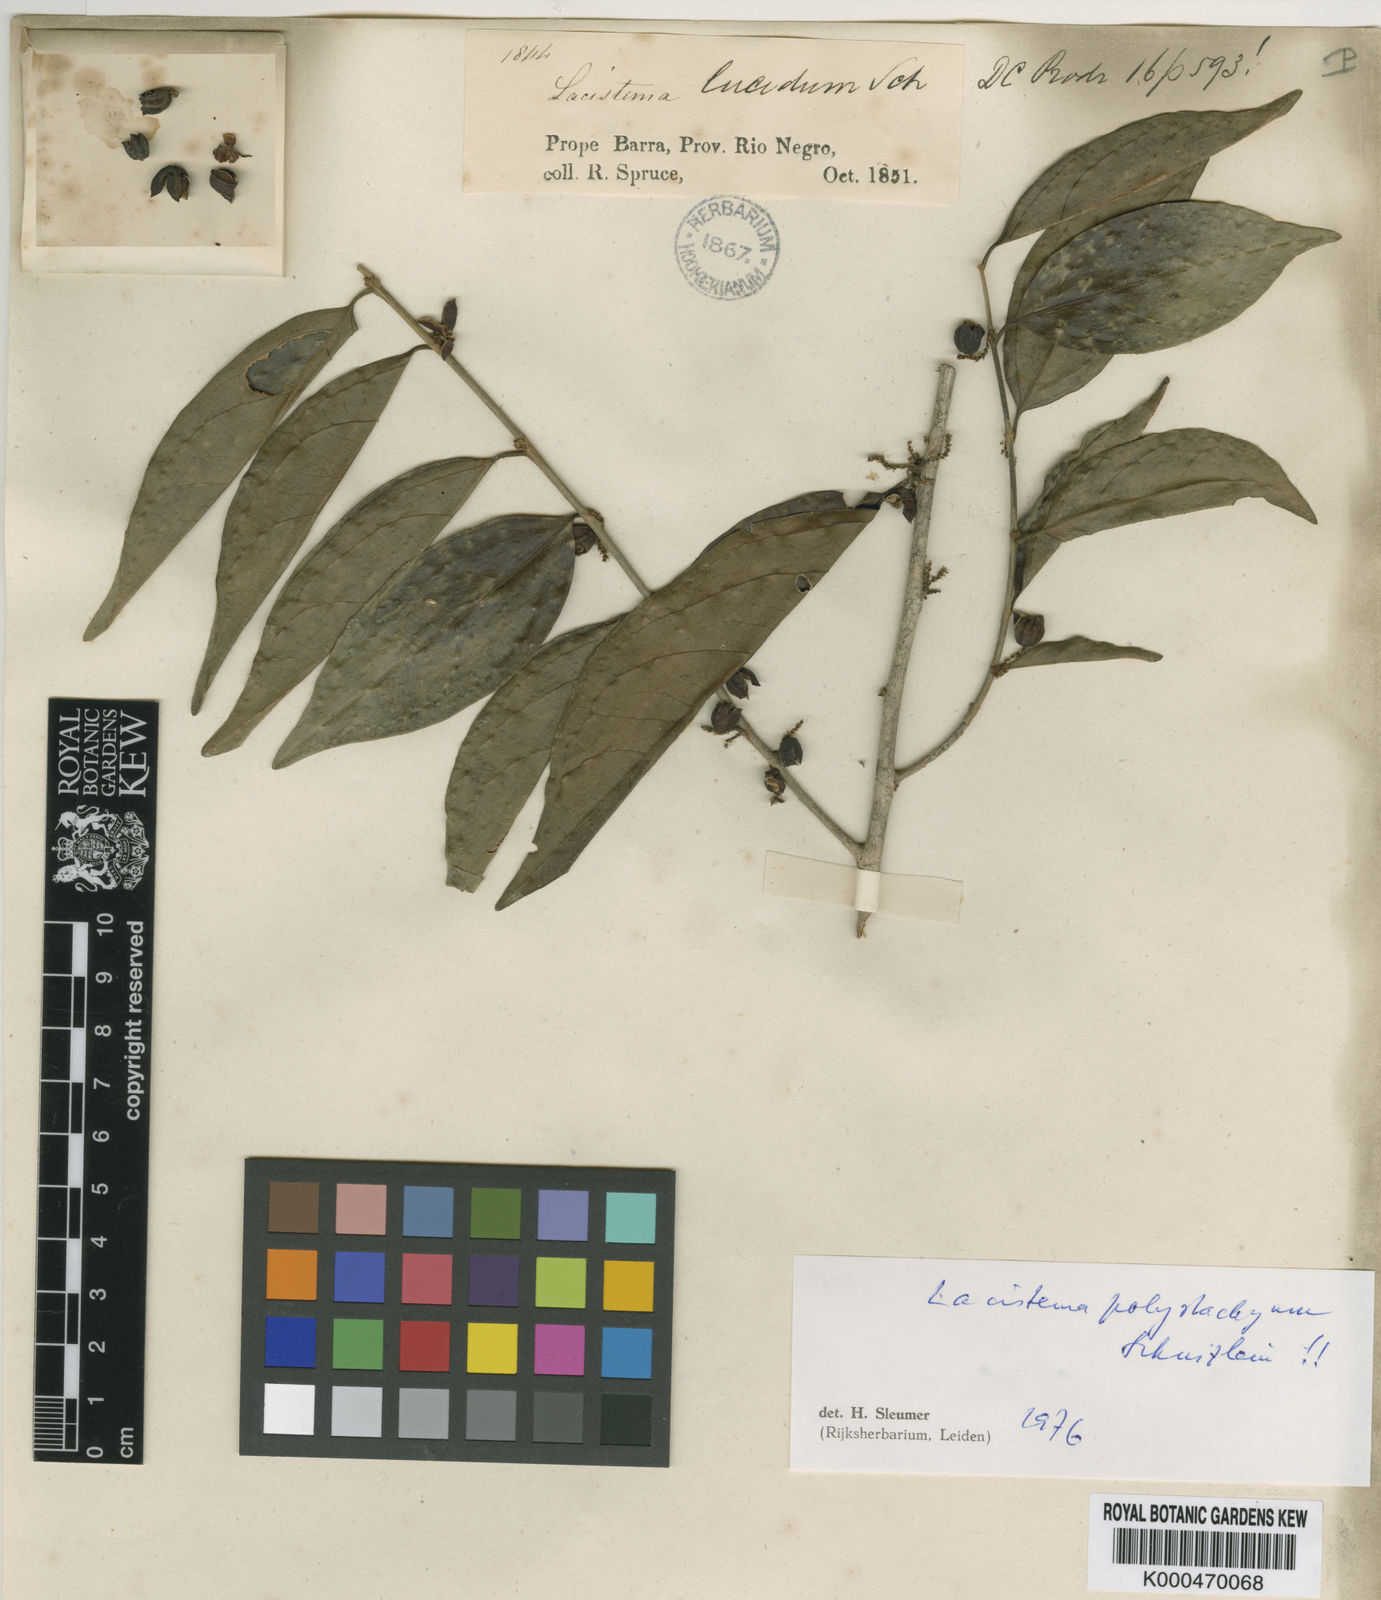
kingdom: Plantae
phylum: Tracheophyta
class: Magnoliopsida
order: Malpighiales
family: Lacistemataceae
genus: Lacistema
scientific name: Lacistema polystachyum
